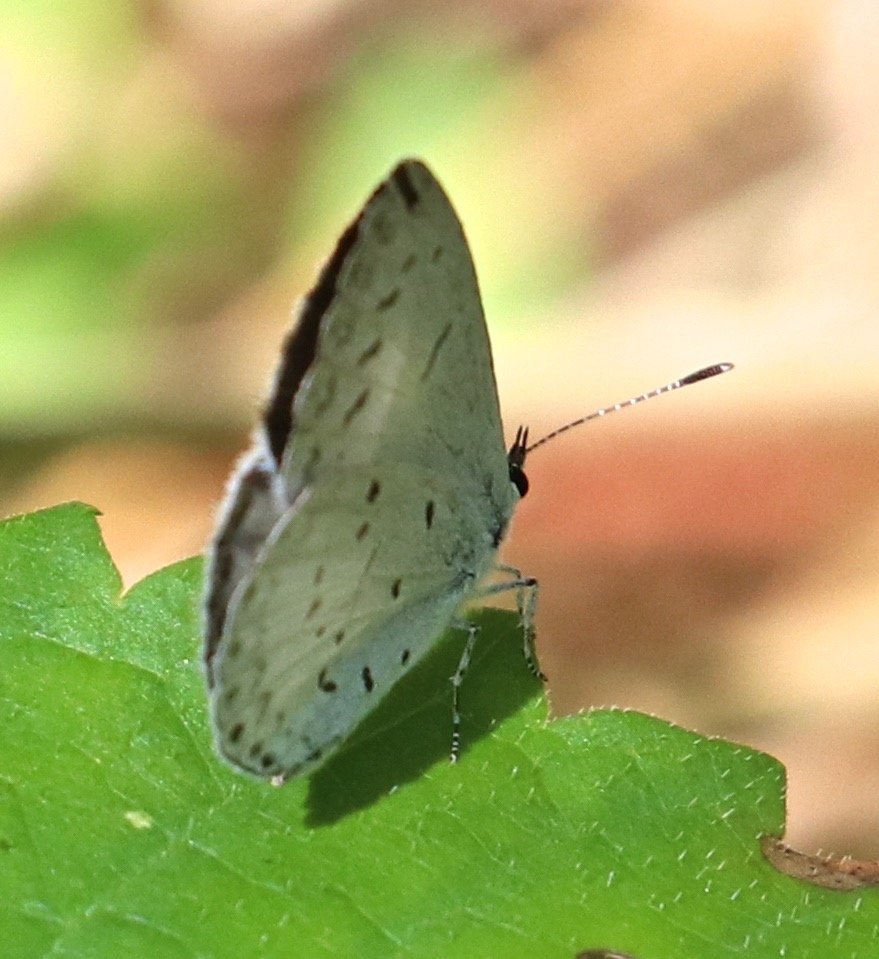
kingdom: Animalia
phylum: Arthropoda
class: Insecta
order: Lepidoptera
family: Lycaenidae
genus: Cyaniris
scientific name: Cyaniris neglecta
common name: Summer Azure
